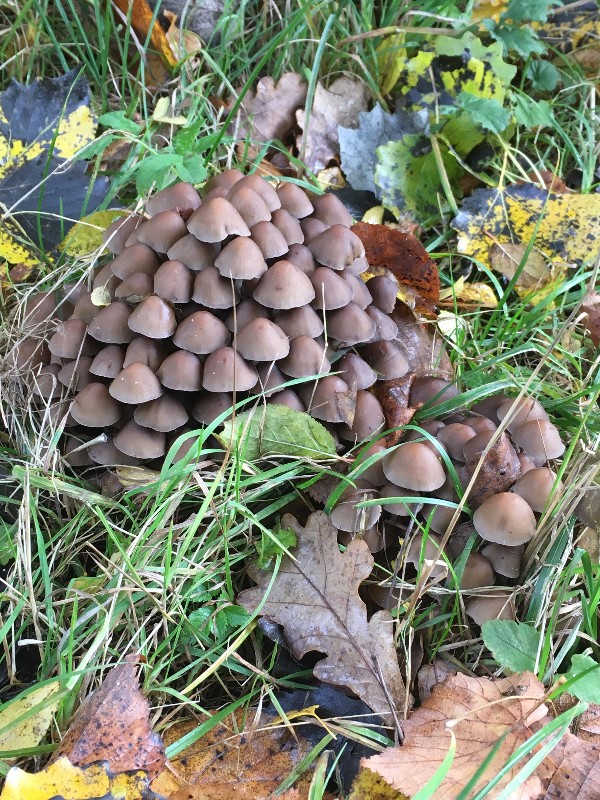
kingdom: Fungi
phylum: Basidiomycota
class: Agaricomycetes
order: Agaricales
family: Psathyrellaceae
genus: Britzelmayria
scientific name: Britzelmayria multipedata
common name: knippe-mørkhat
